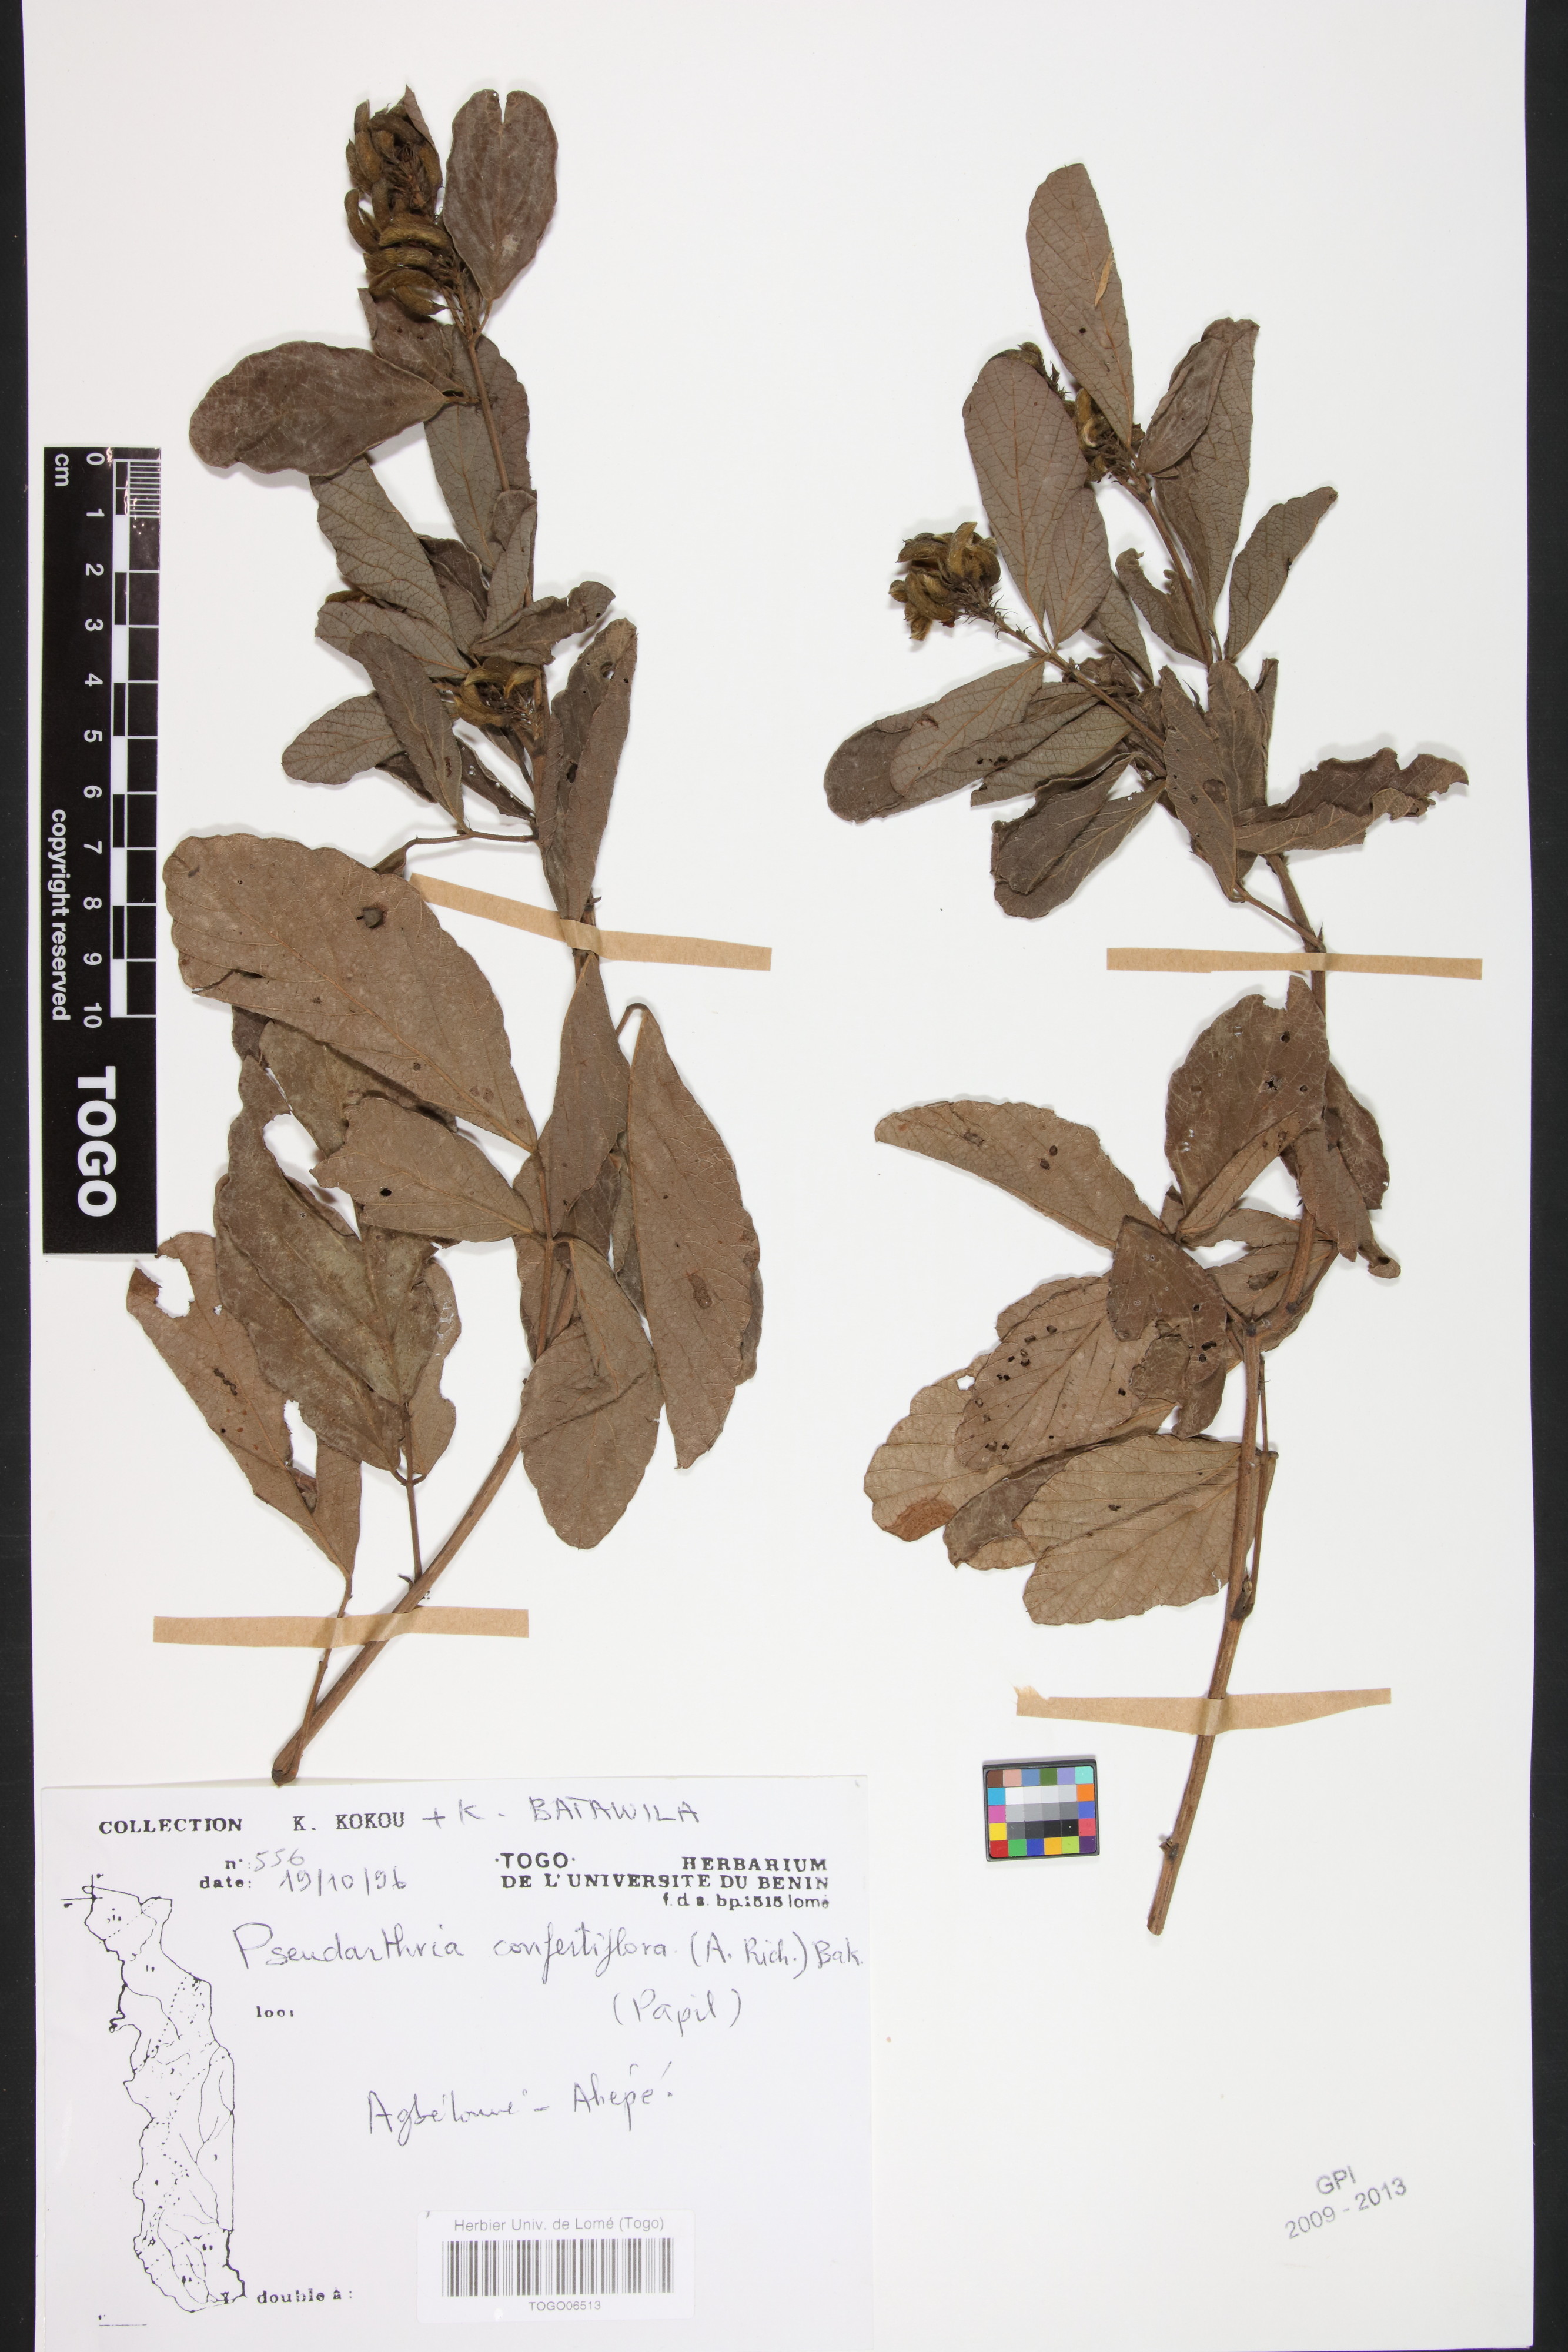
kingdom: Plantae
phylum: Tracheophyta
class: Magnoliopsida
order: Fabales
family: Fabaceae
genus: Pseudarthria
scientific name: Pseudarthria confertiflora
